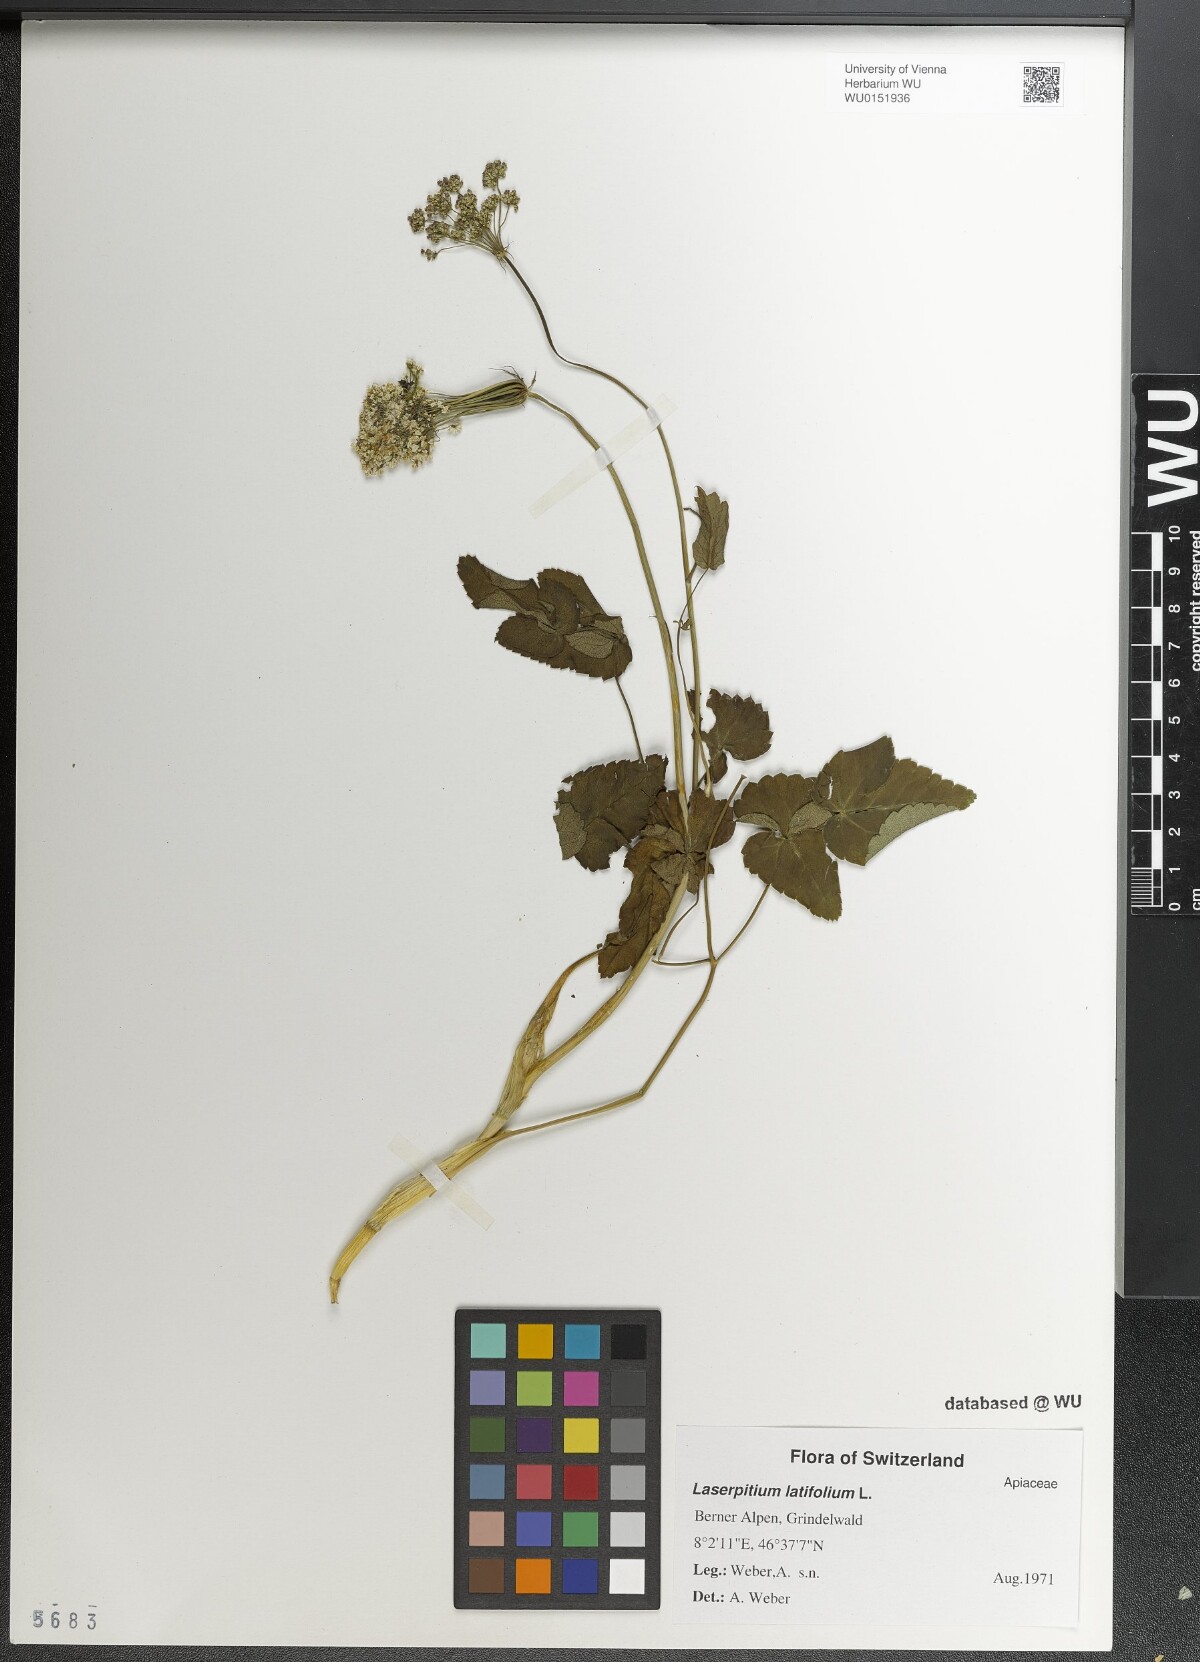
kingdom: Plantae
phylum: Tracheophyta
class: Magnoliopsida
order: Apiales
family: Apiaceae
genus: Laserpitium
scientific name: Laserpitium latifolium
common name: Broadleaf sermountain
